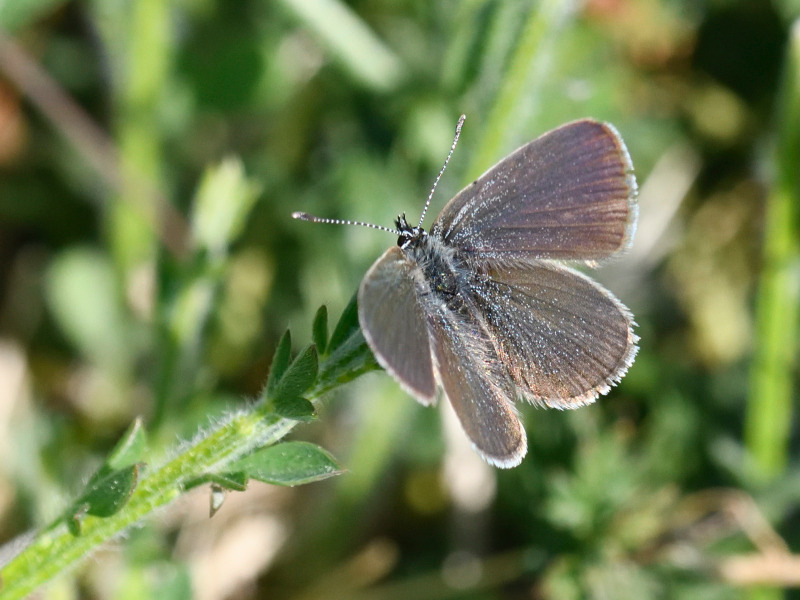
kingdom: Animalia
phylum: Arthropoda
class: Insecta
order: Lepidoptera
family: Lycaenidae
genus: Cupido
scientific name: Cupido minimus
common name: Dværgblåfugl
